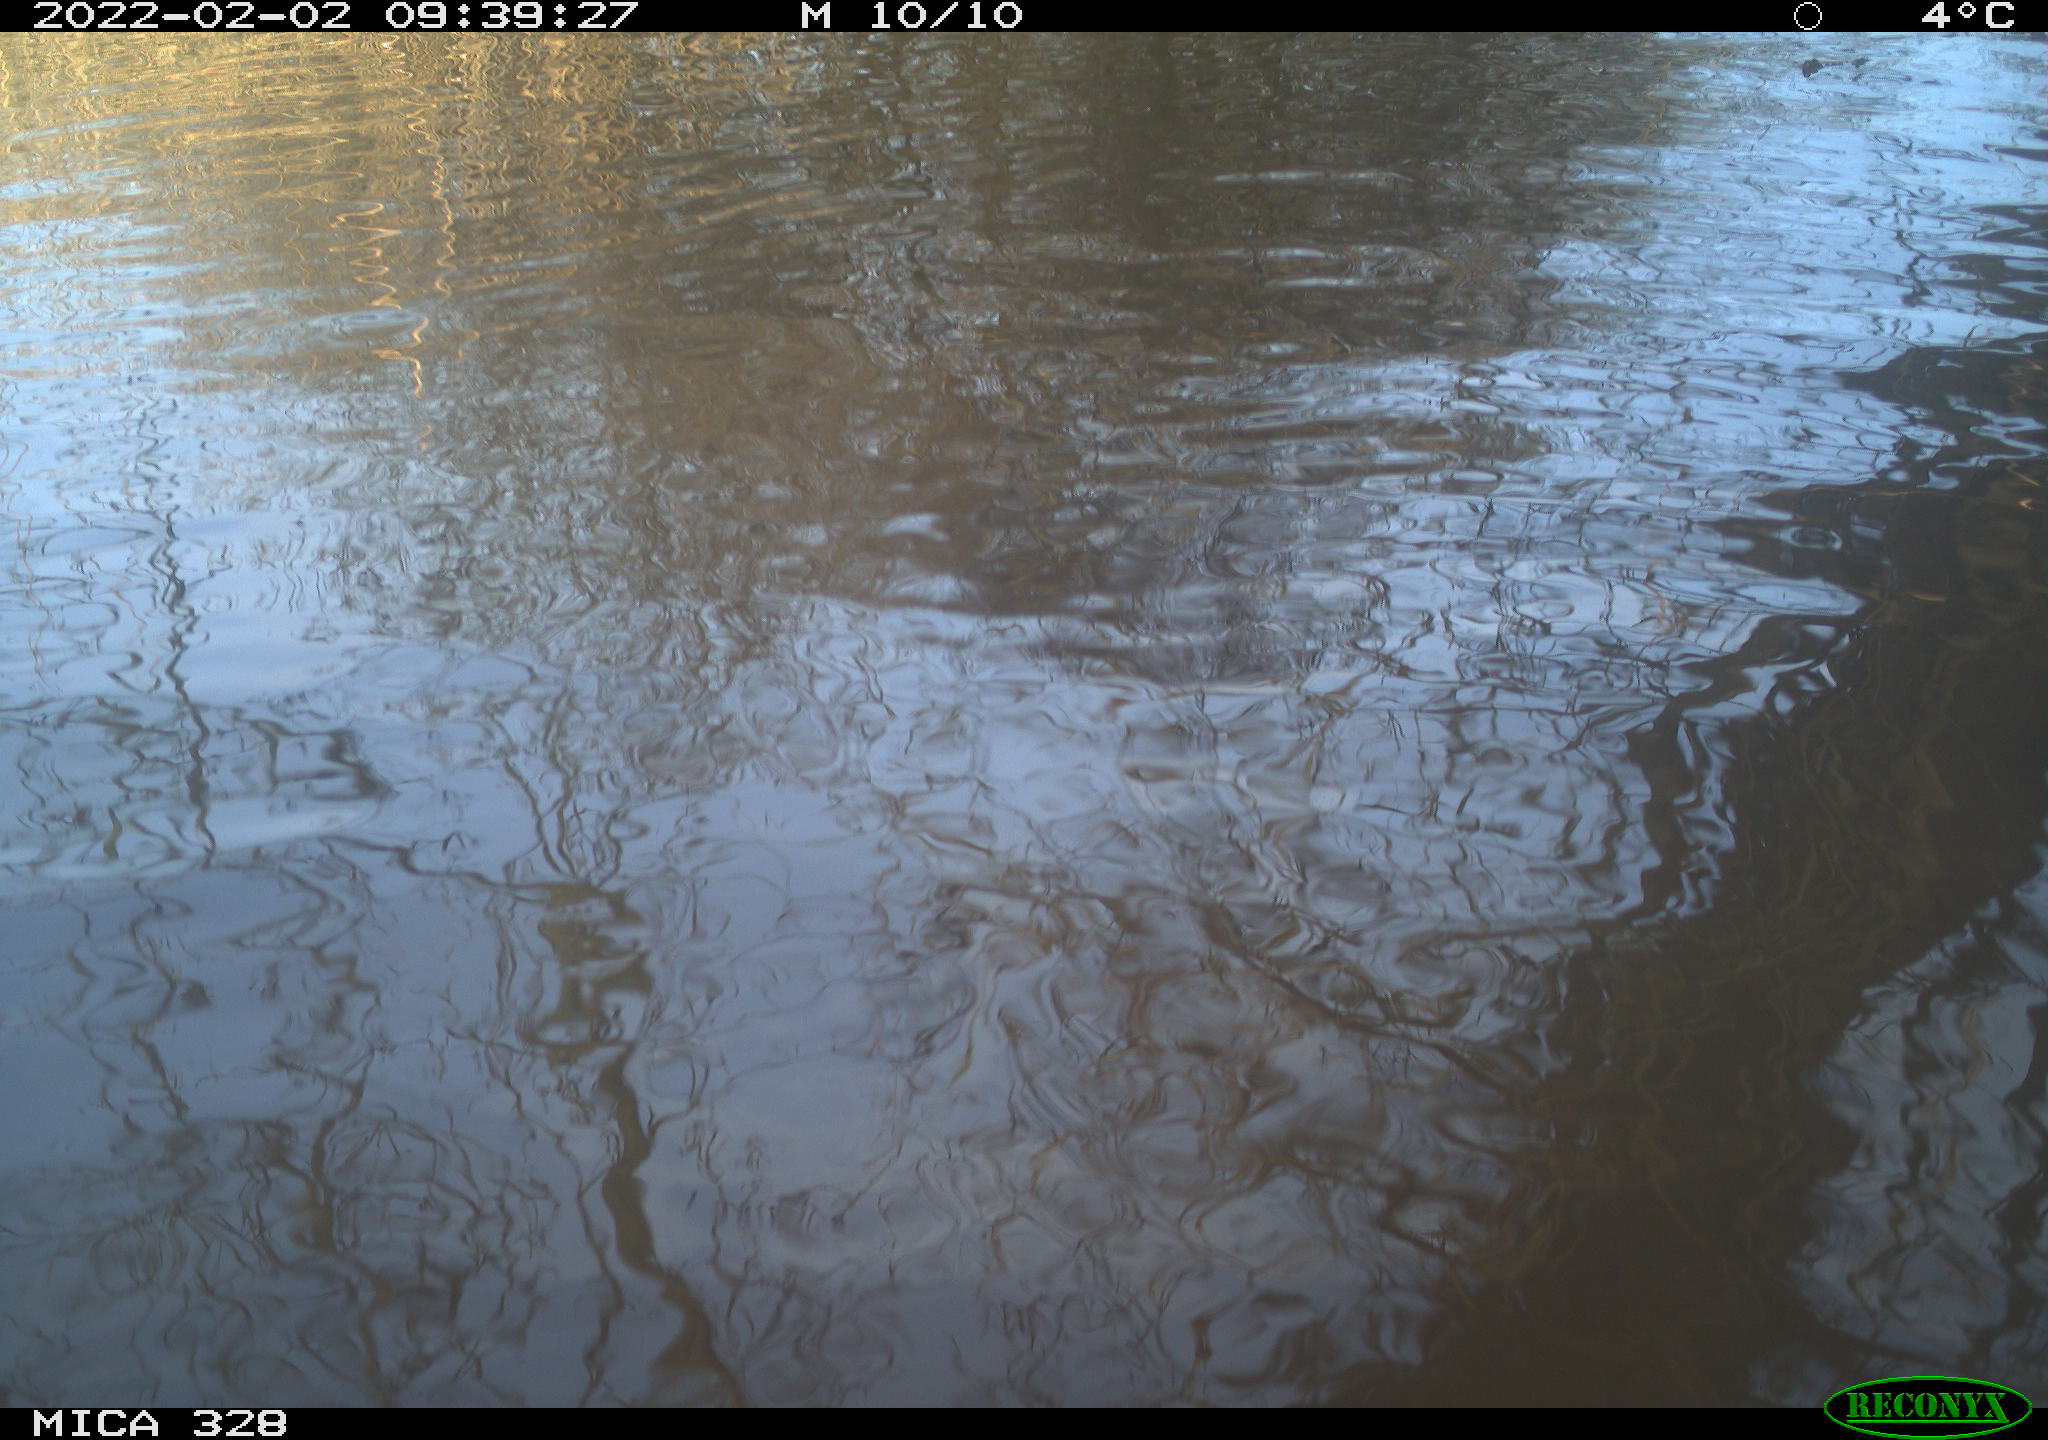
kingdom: Animalia
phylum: Chordata
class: Mammalia
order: Rodentia
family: Cricetidae
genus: Ondatra
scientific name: Ondatra zibethicus
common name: Muskrat
